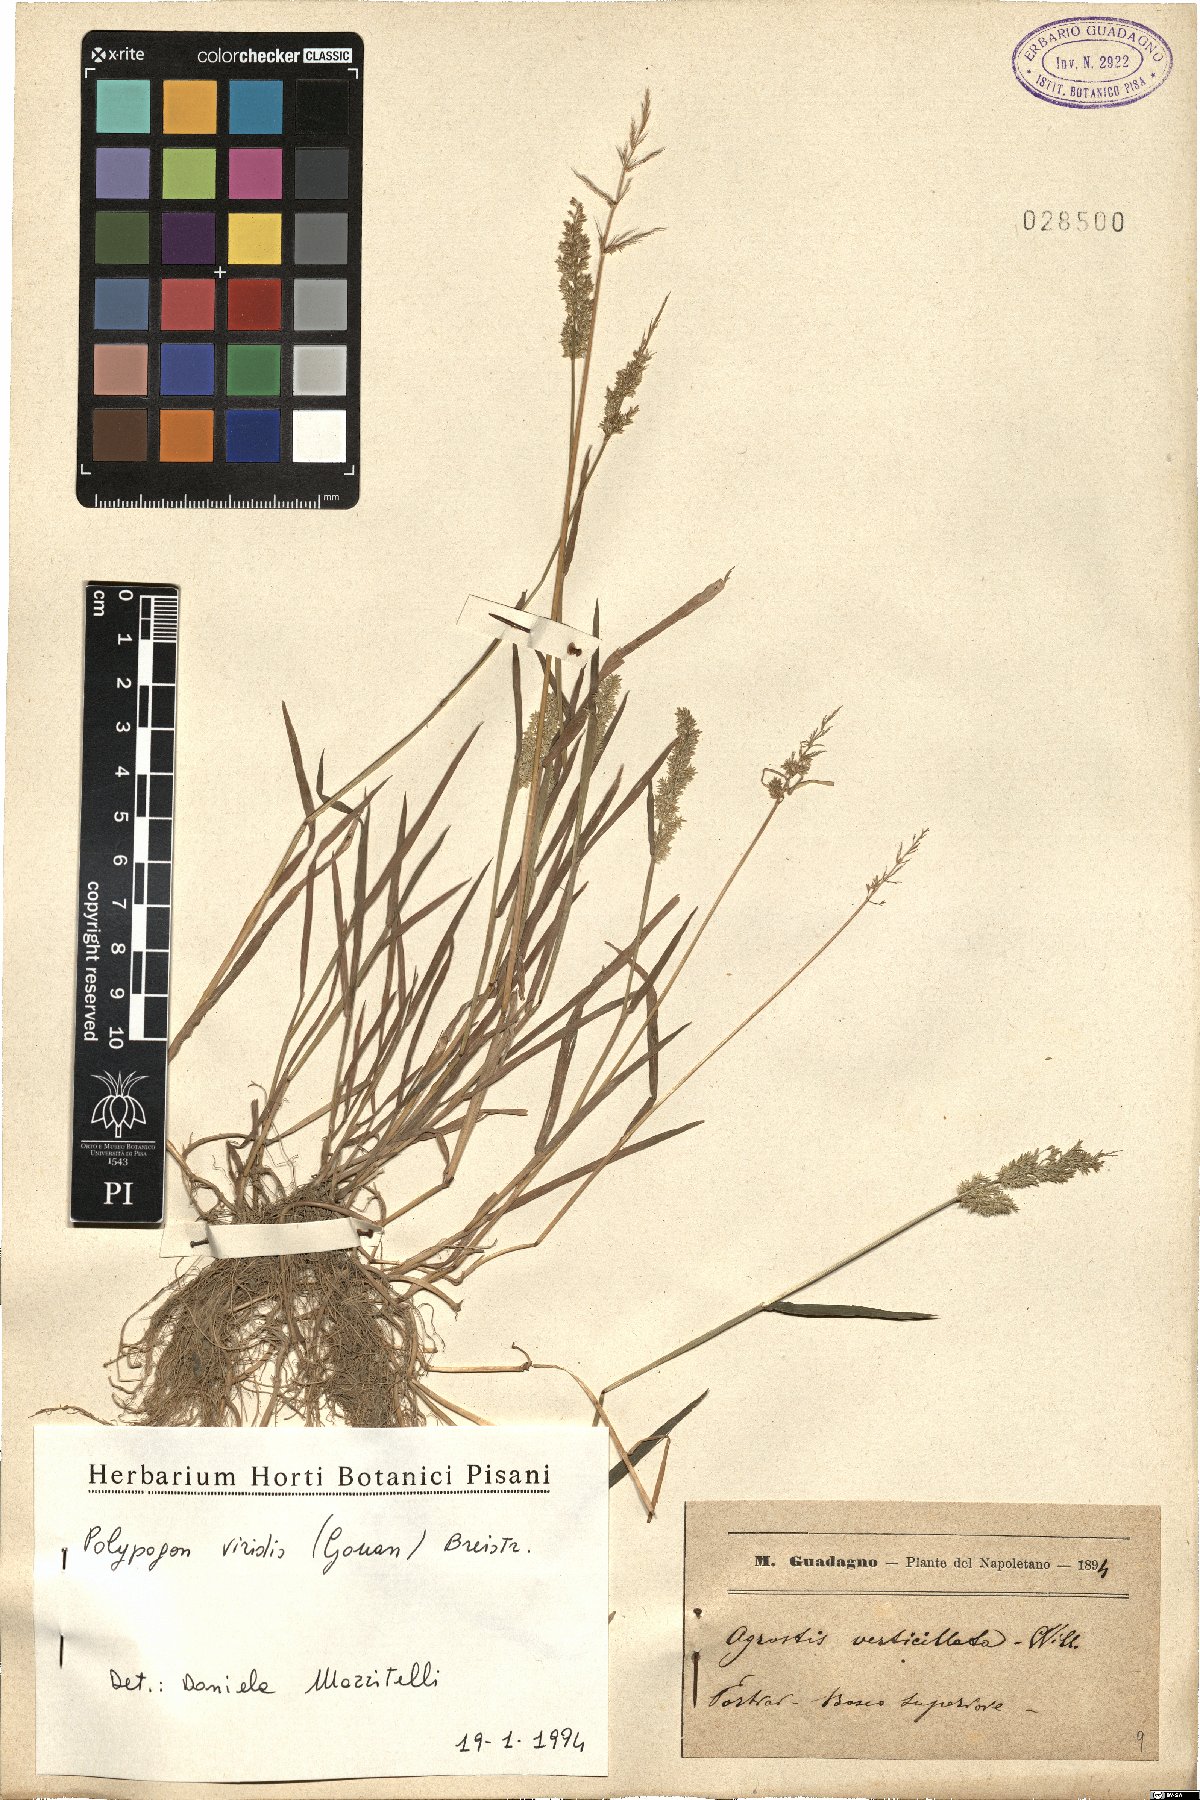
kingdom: Plantae
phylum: Tracheophyta
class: Liliopsida
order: Poales
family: Poaceae
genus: Polypogon
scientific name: Polypogon viridis
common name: Water bent
